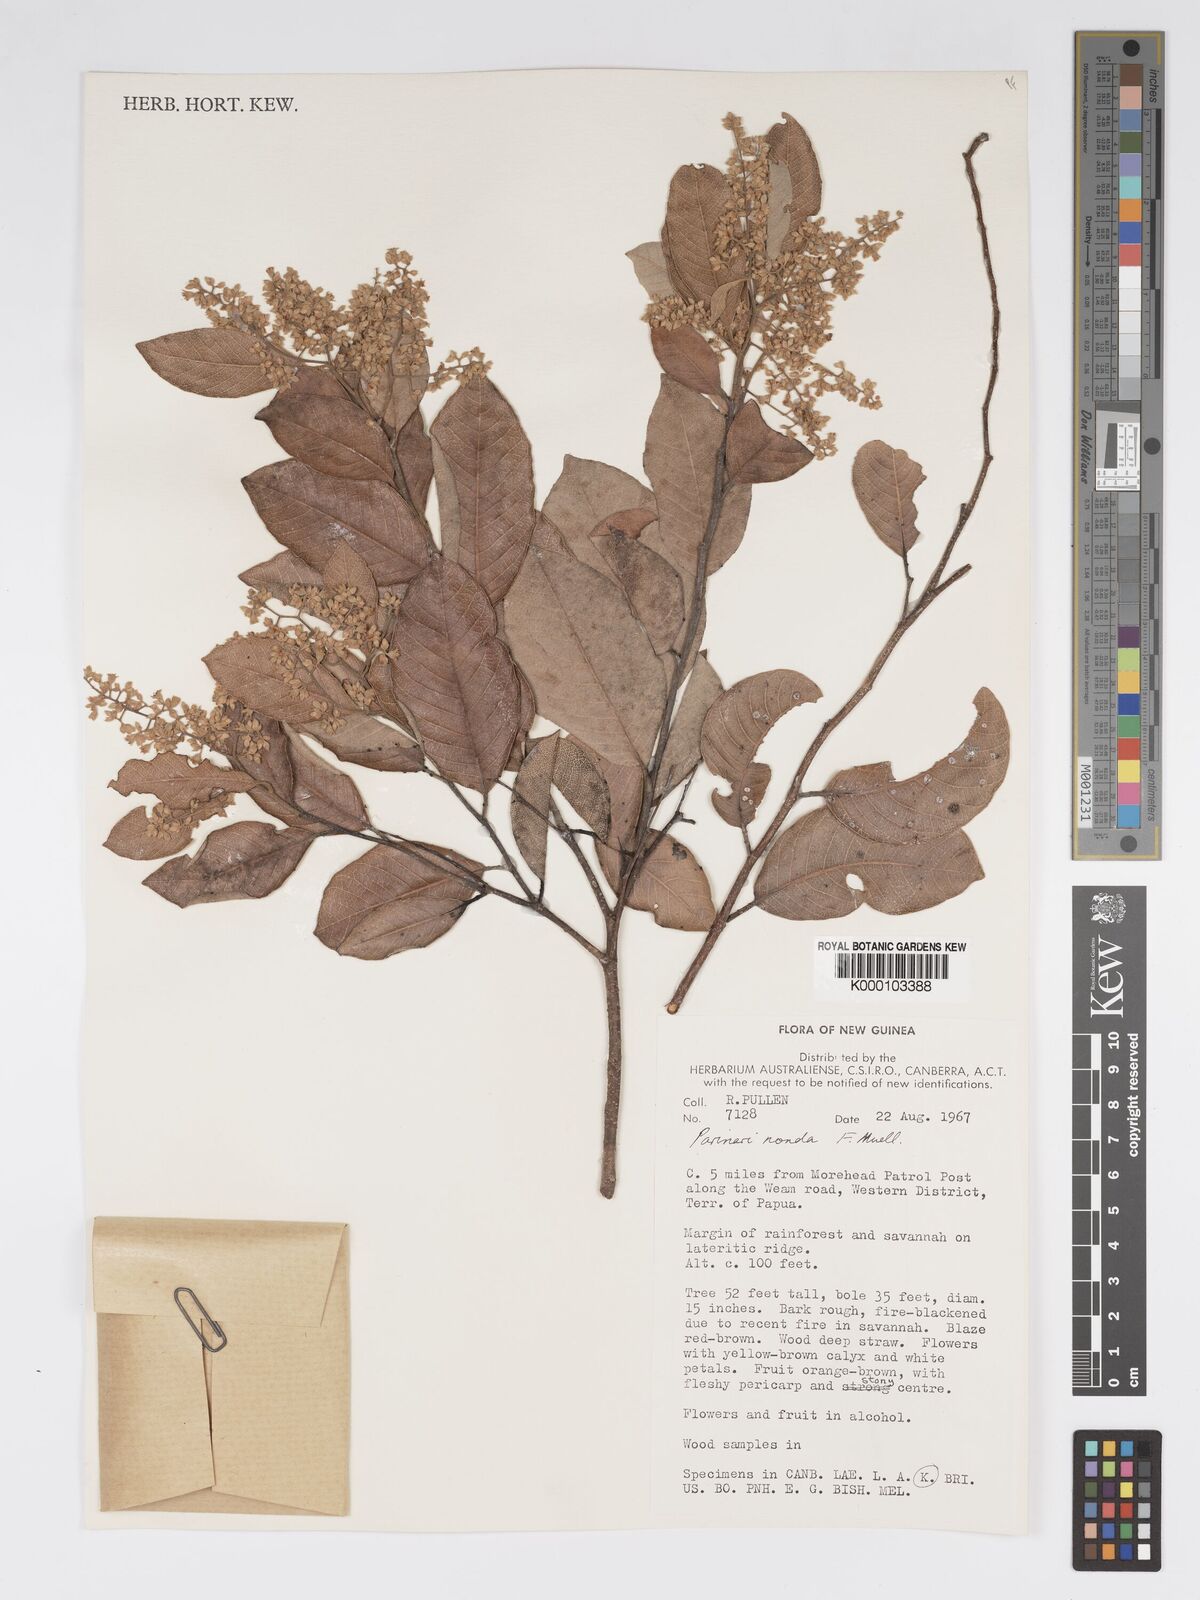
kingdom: Plantae
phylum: Tracheophyta
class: Magnoliopsida
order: Malpighiales
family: Chrysobalanaceae
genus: Parinari
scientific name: Parinari nonda
